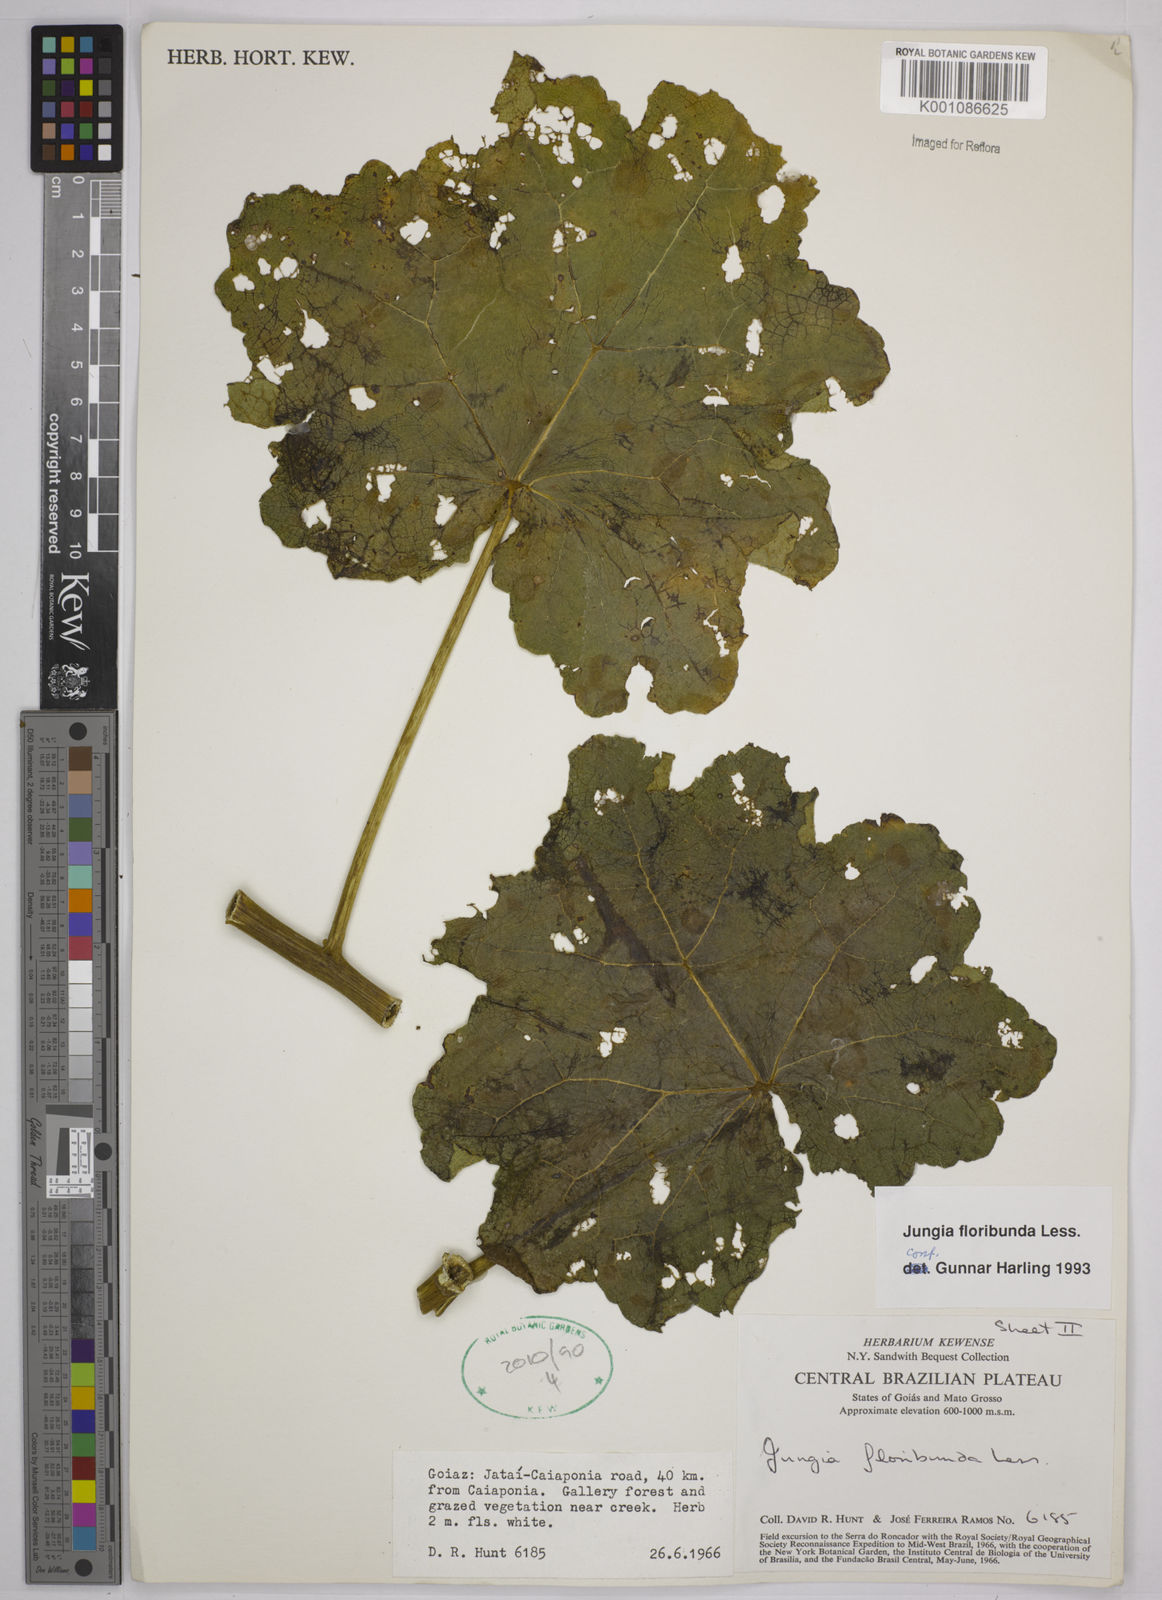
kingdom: Plantae
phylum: Tracheophyta
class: Magnoliopsida
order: Asterales
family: Asteraceae
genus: Jungia
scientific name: Jungia floribunda
